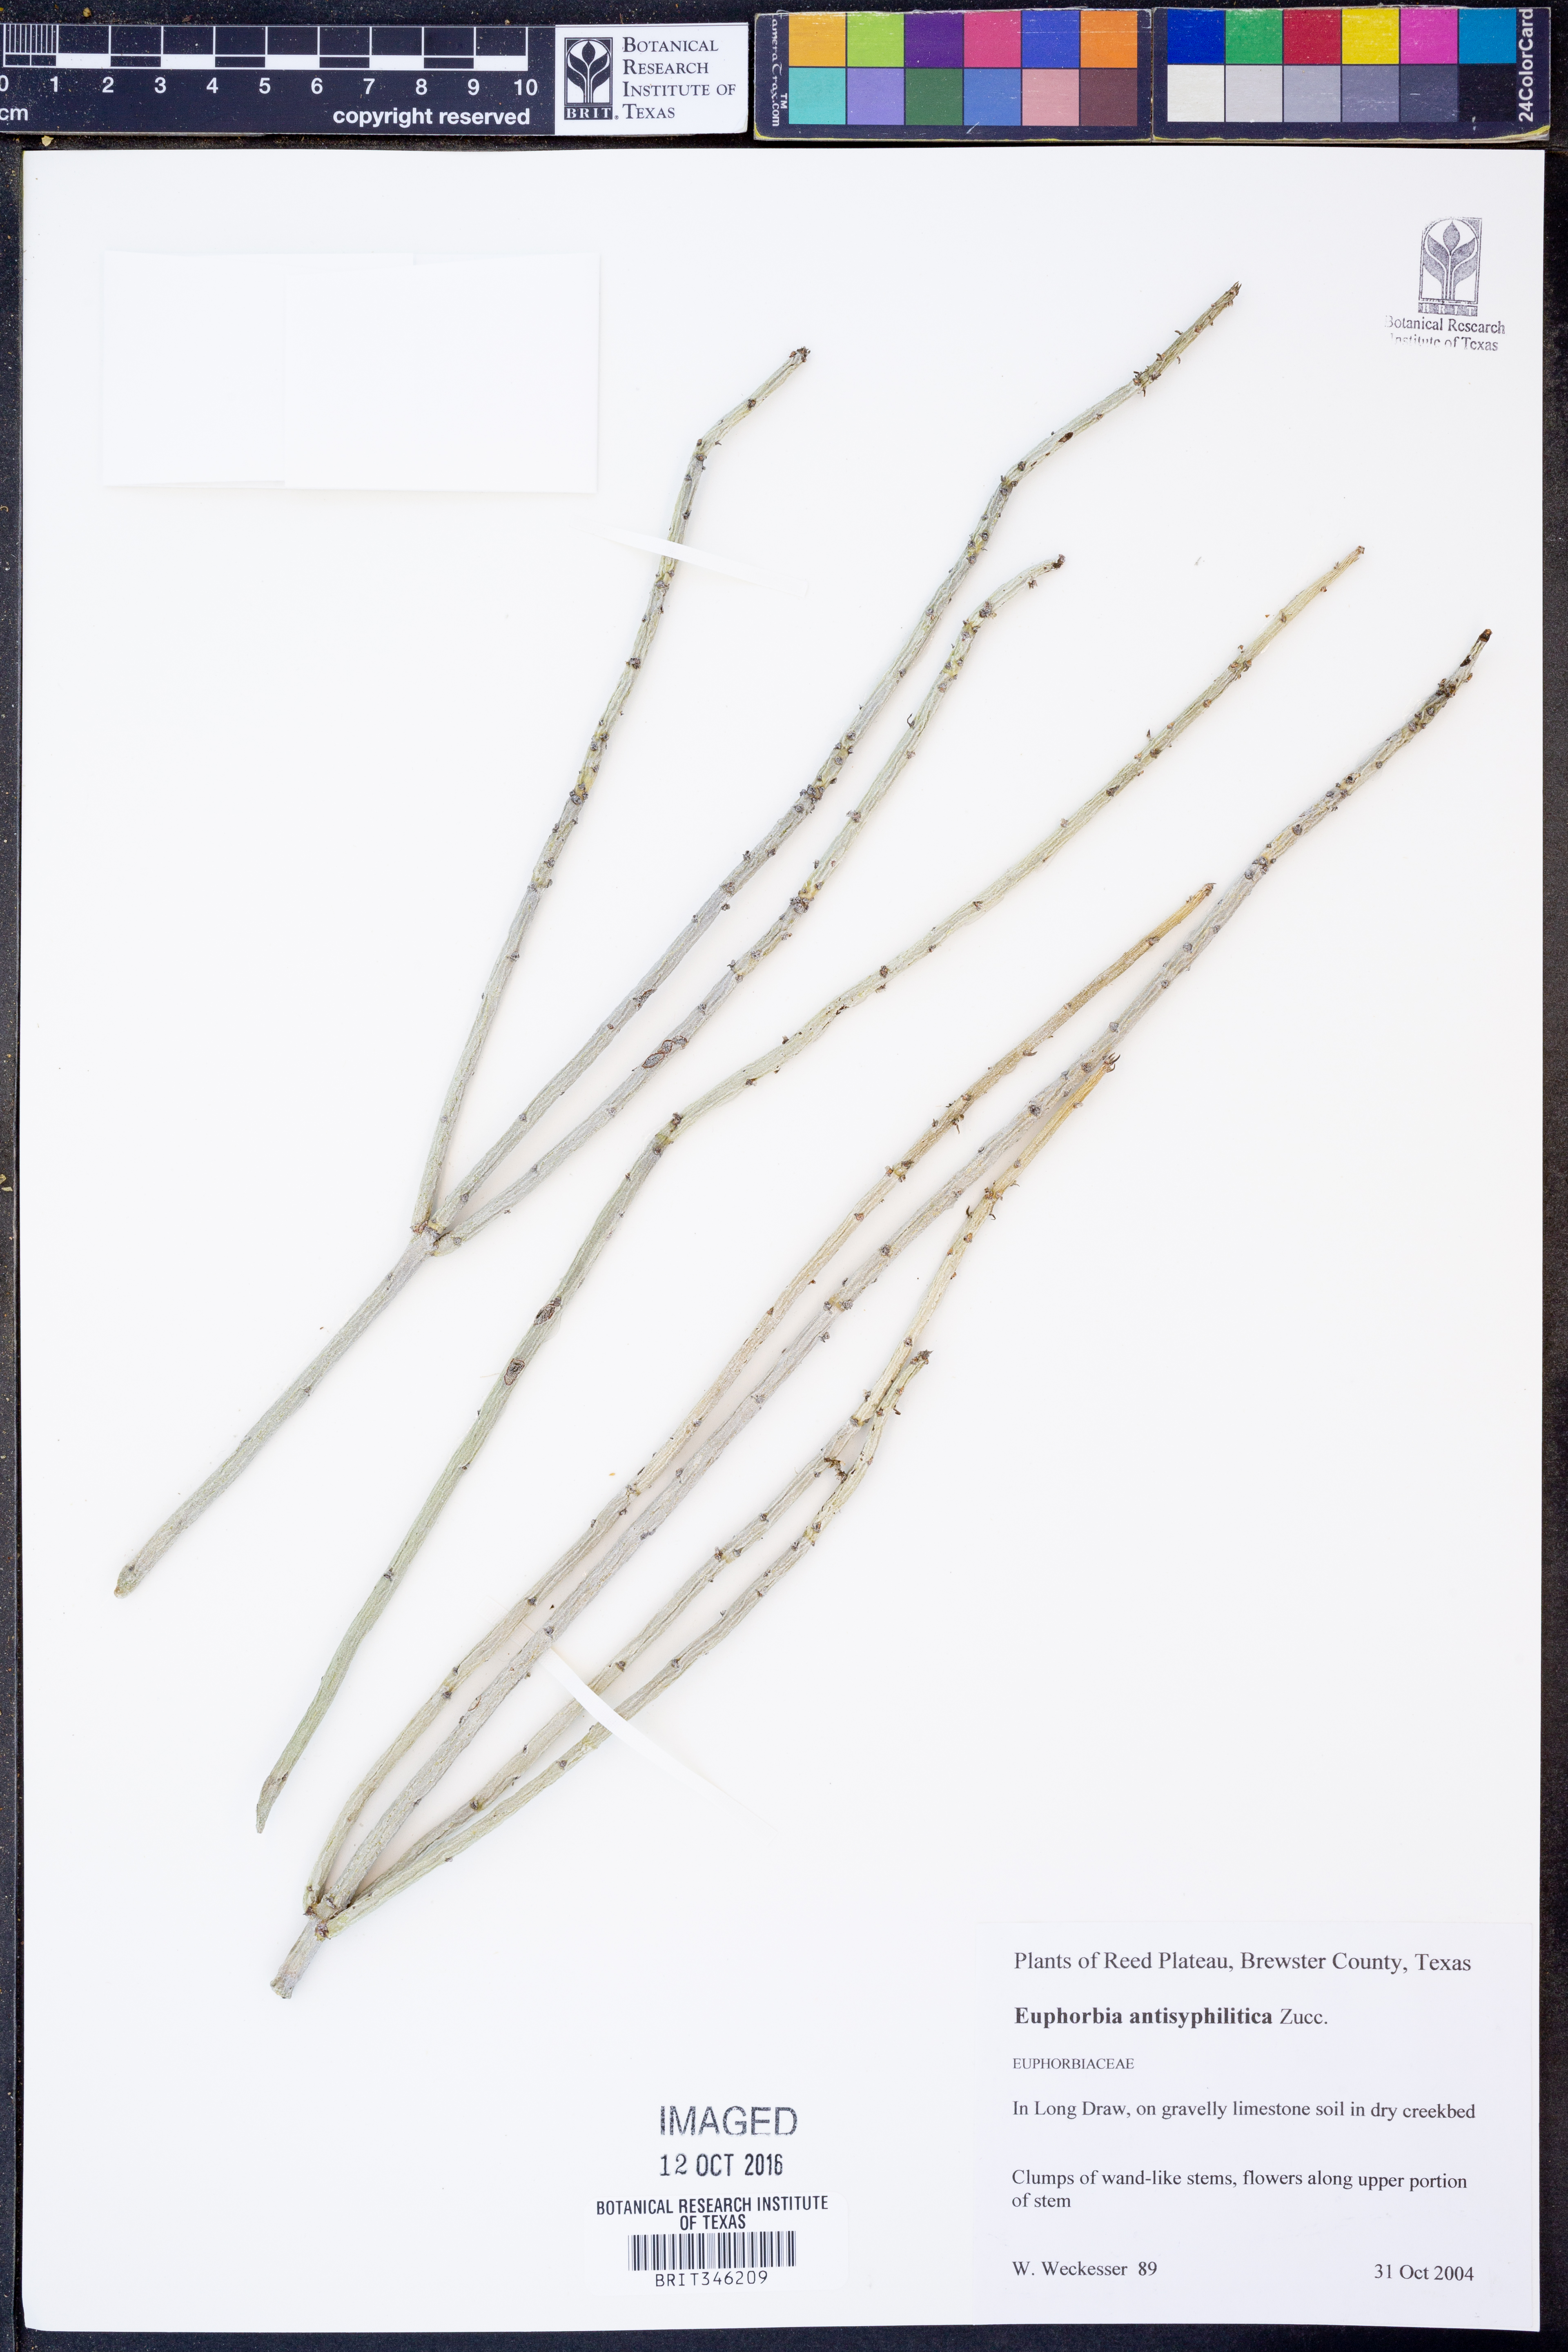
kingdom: Plantae
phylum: Tracheophyta
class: Magnoliopsida
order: Malpighiales
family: Euphorbiaceae
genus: Euphorbia
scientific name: Euphorbia antisyphilitica
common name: Candelilla
